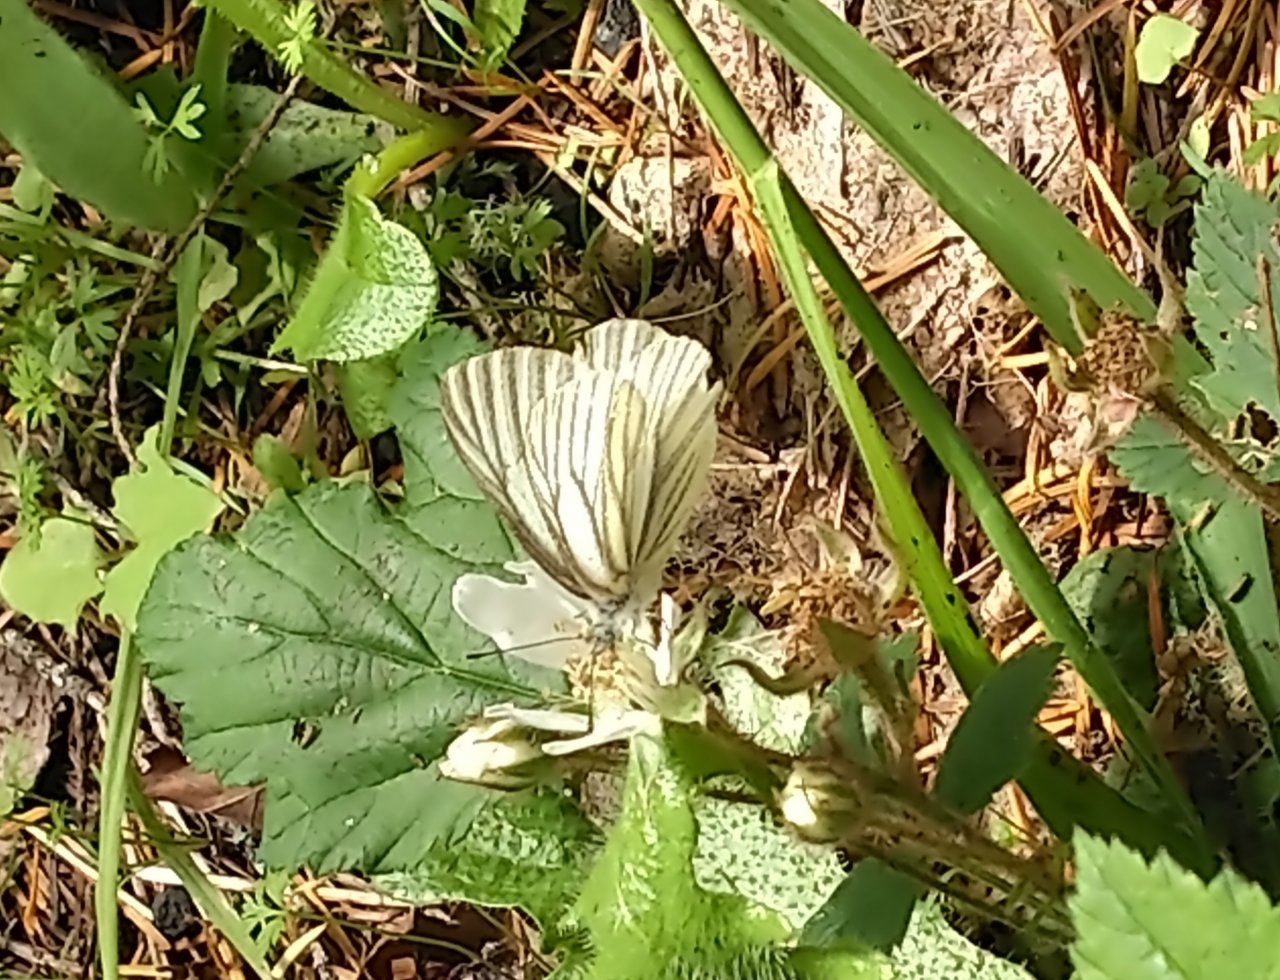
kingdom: Animalia
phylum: Arthropoda
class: Insecta
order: Lepidoptera
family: Pieridae
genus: Pieris
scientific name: Pieris marginalis
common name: Margined White
